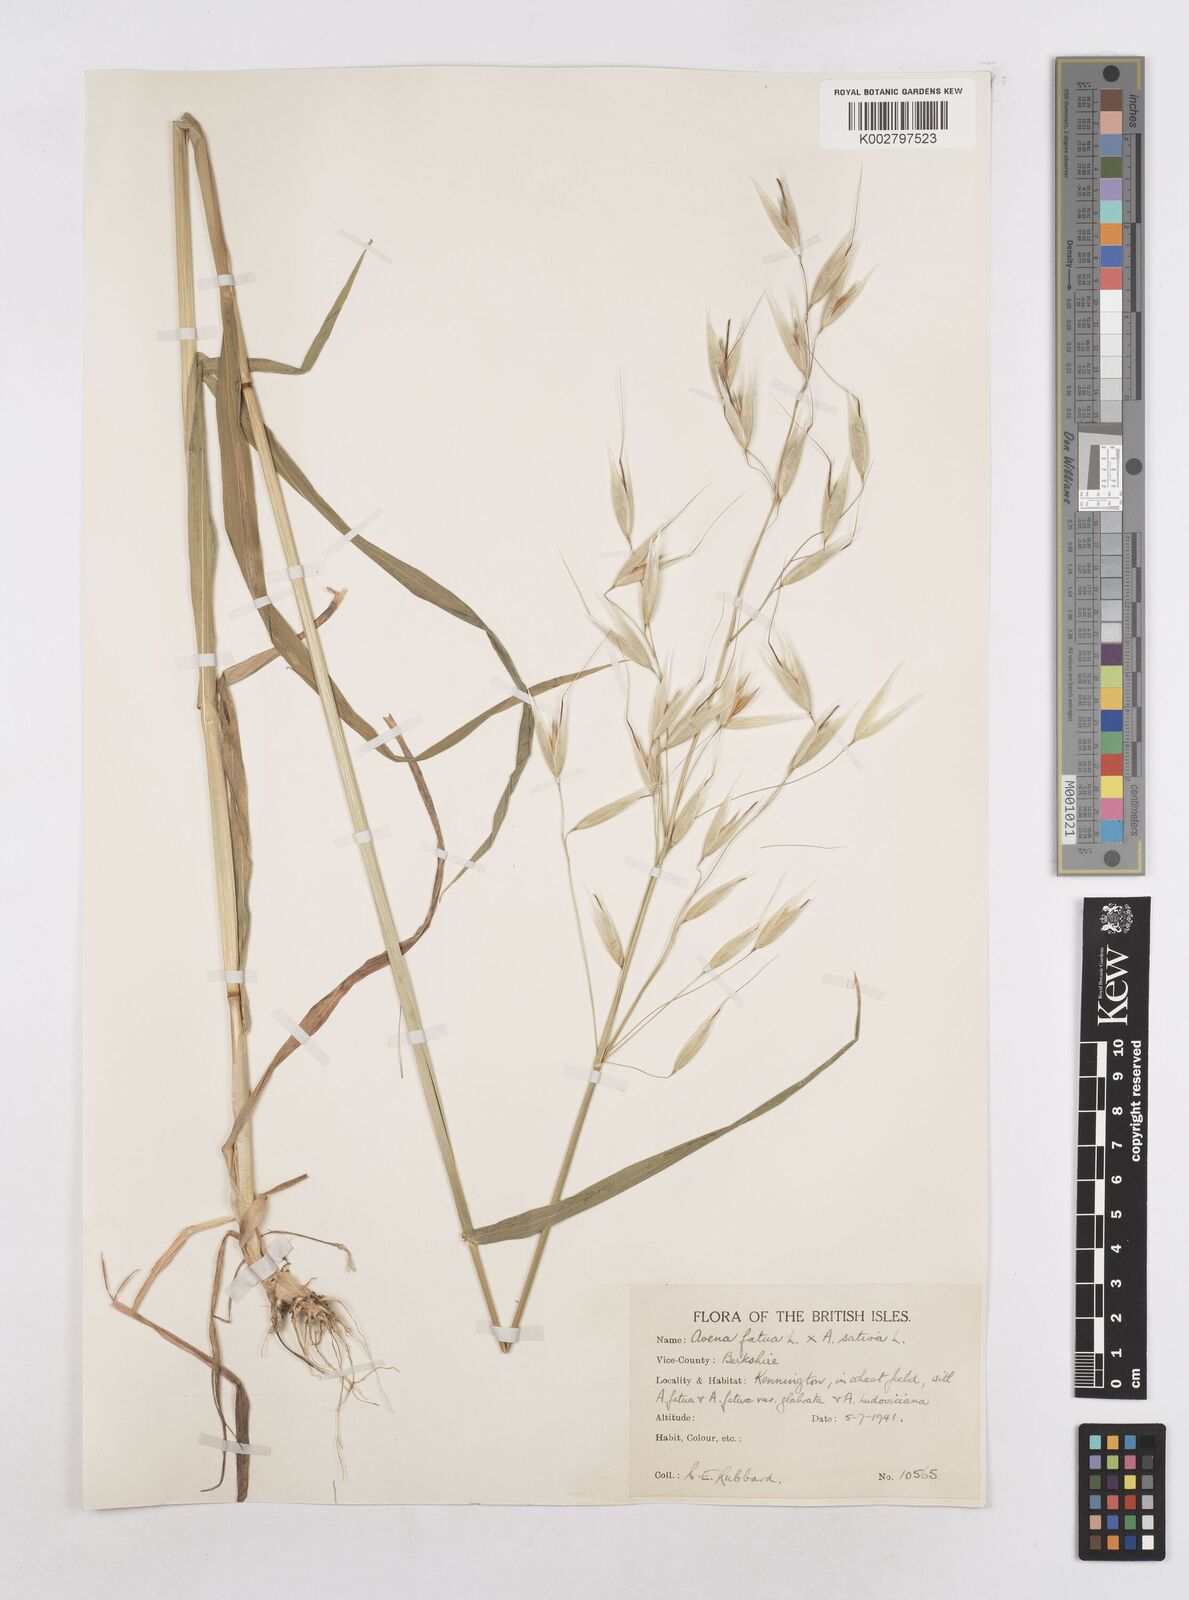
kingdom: Plantae
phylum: Tracheophyta
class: Liliopsida
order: Poales
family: Poaceae
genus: Avena
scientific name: Avena fatua
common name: Wild oat
